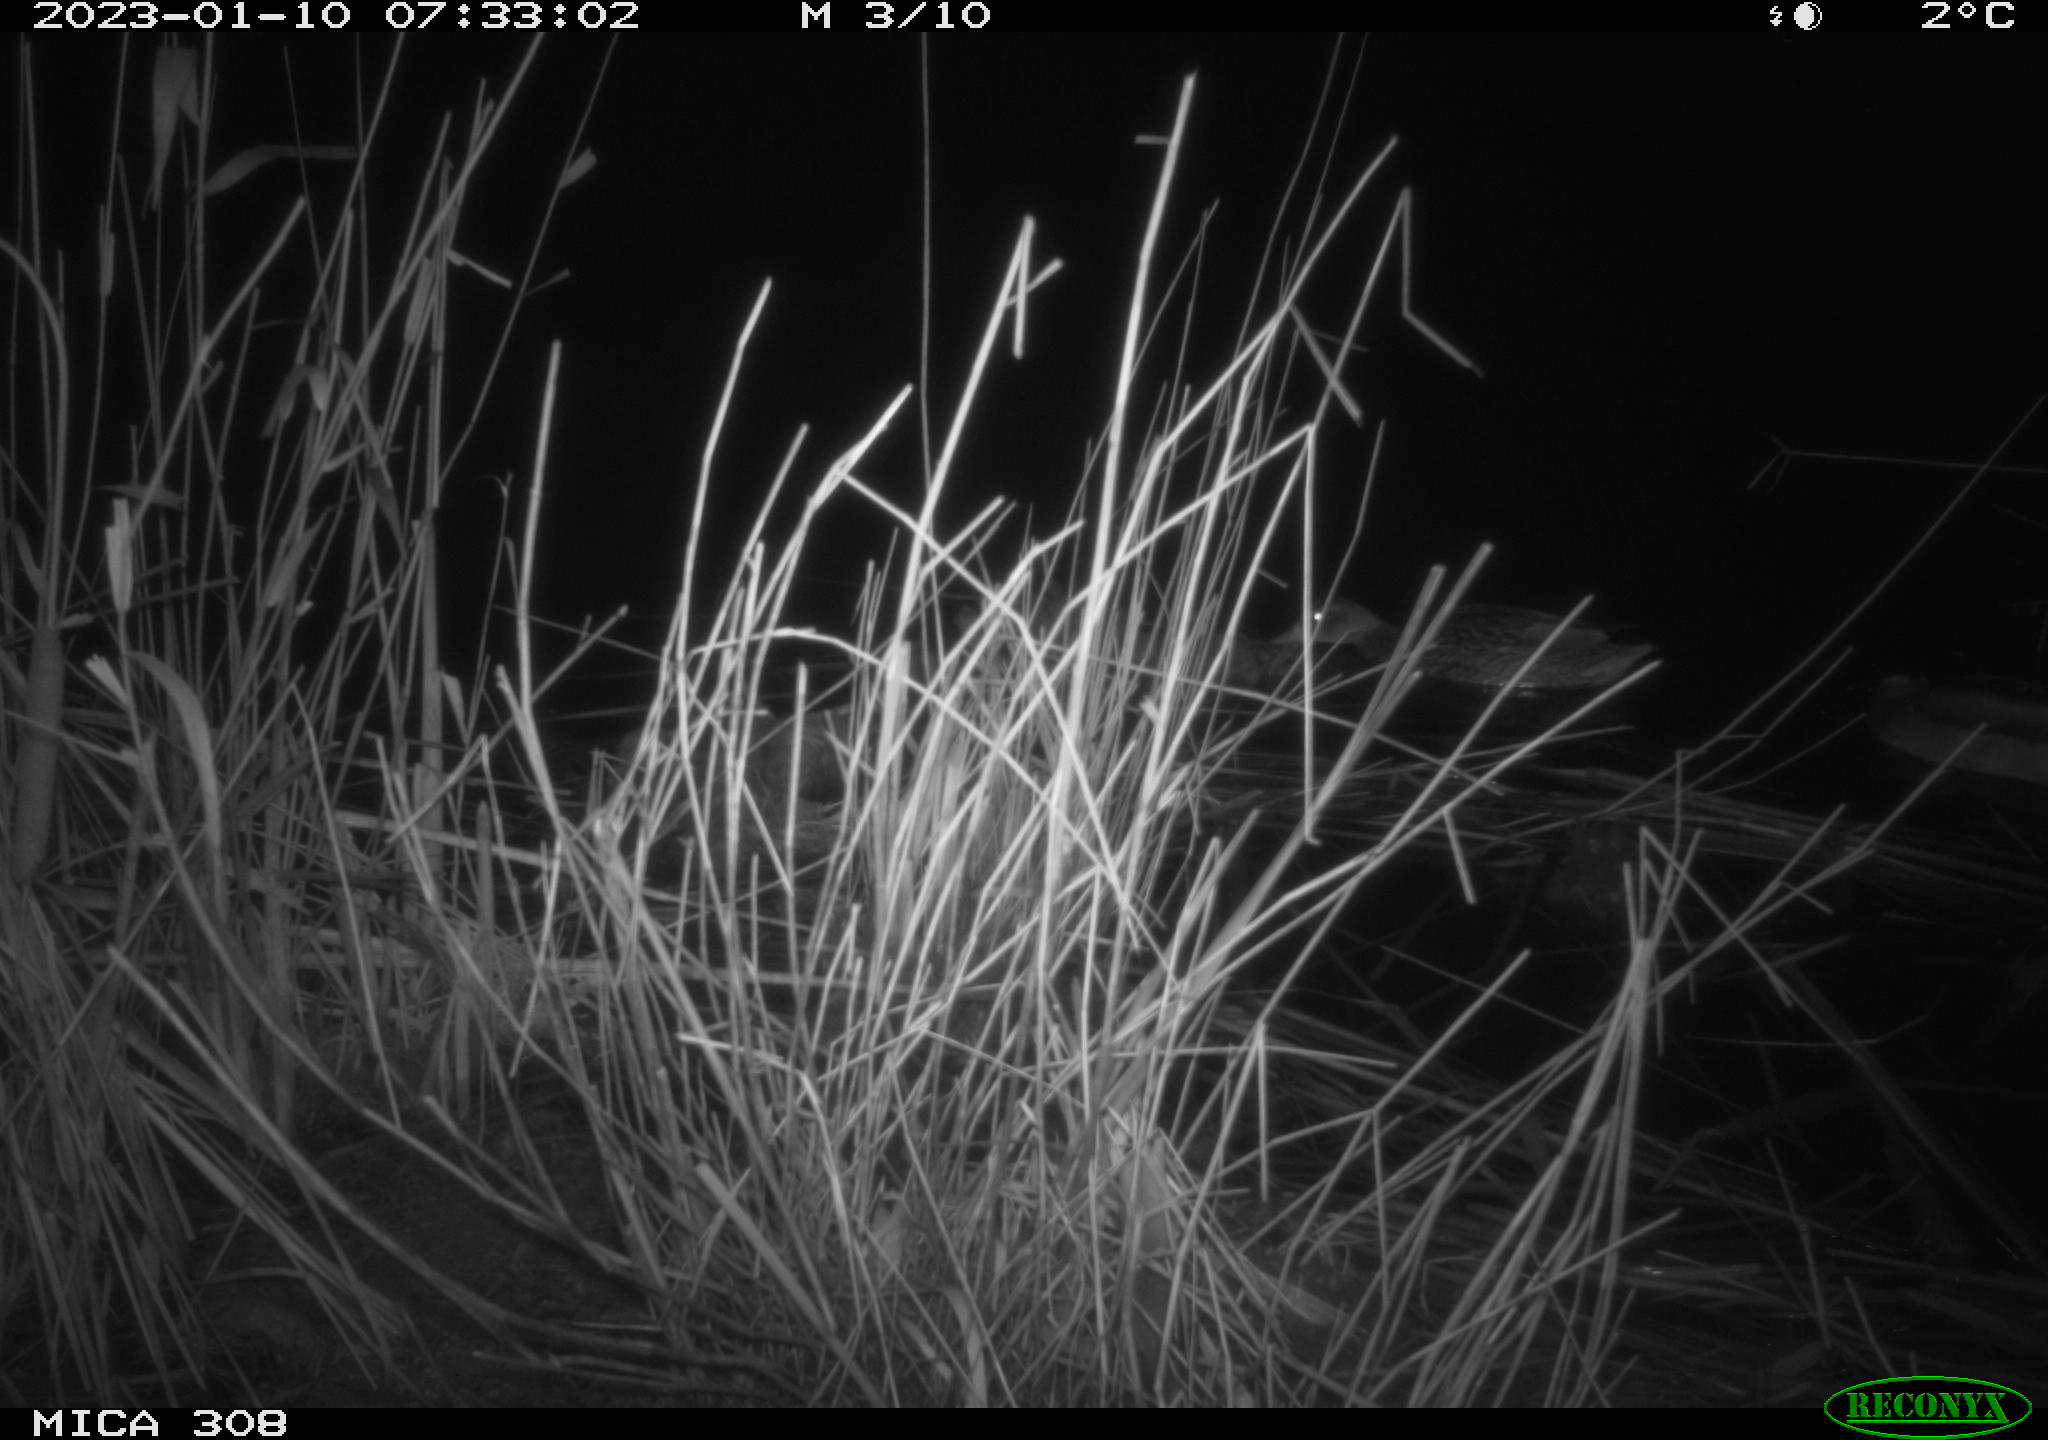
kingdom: Animalia
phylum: Chordata
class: Aves
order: Anseriformes
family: Anatidae
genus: Anas
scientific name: Anas
